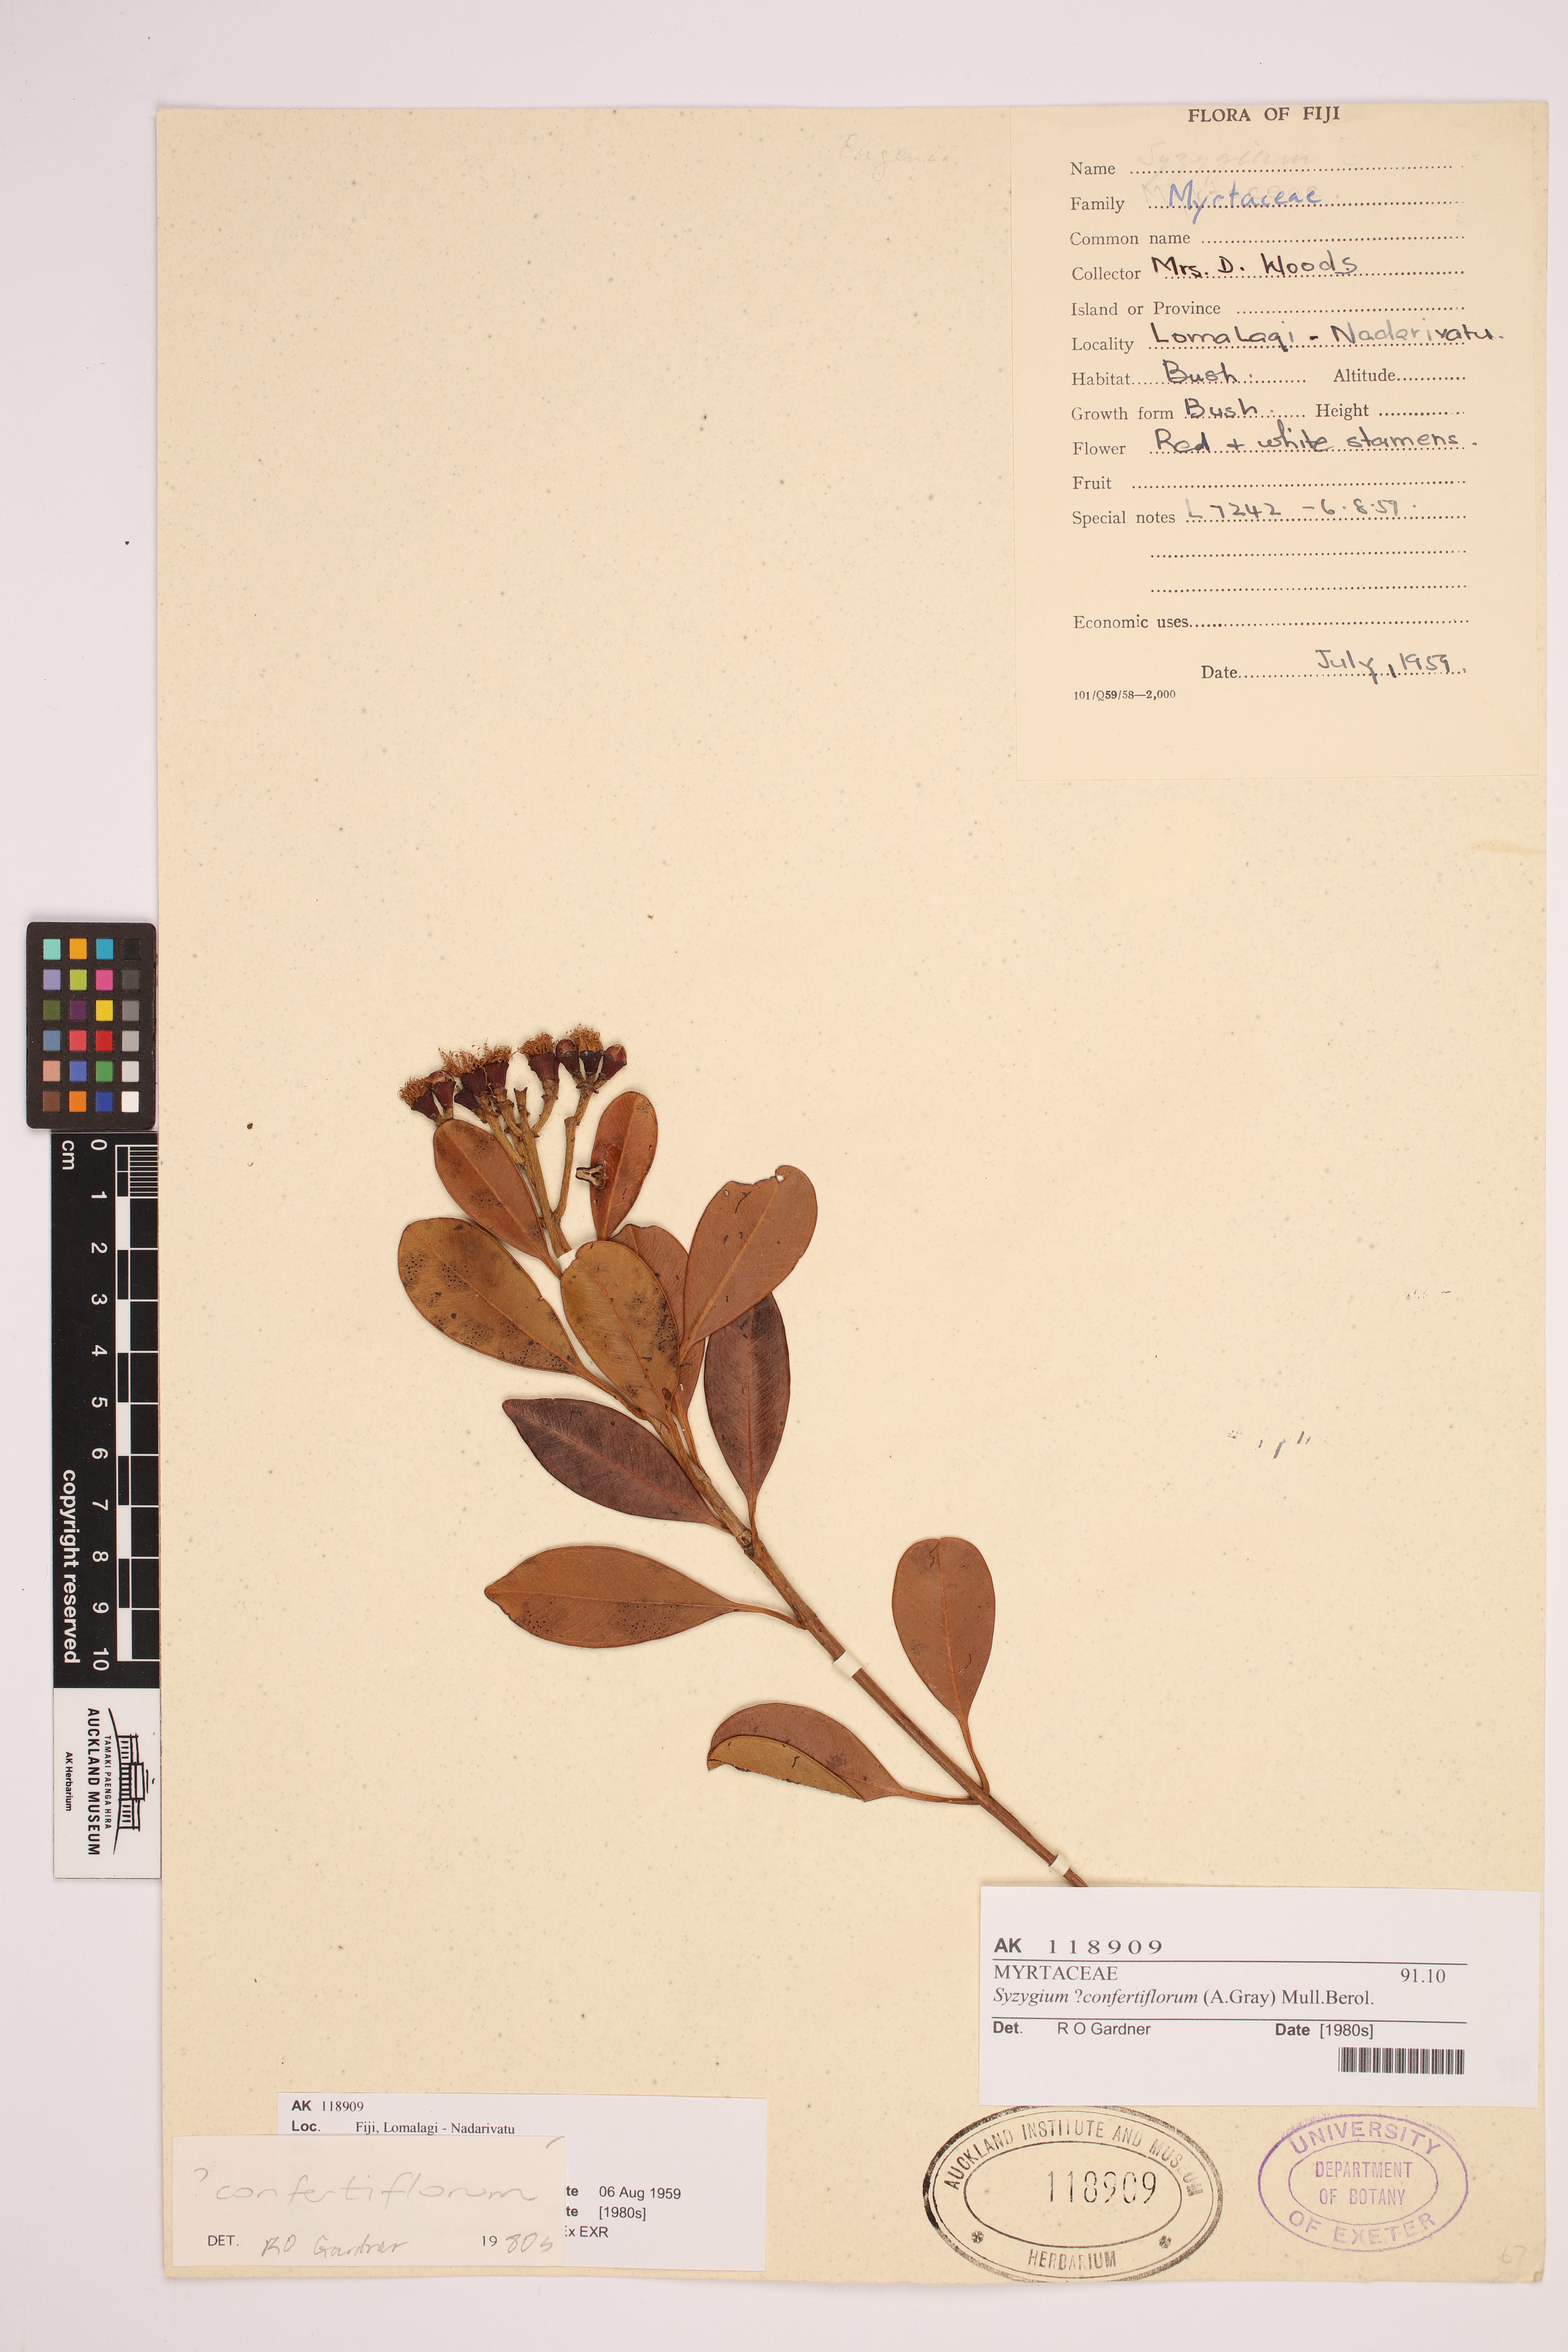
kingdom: Plantae
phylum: Tracheophyta
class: Magnoliopsida
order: Myrtales
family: Myrtaceae
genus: Syzygium
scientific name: Syzygium confertiflorum
